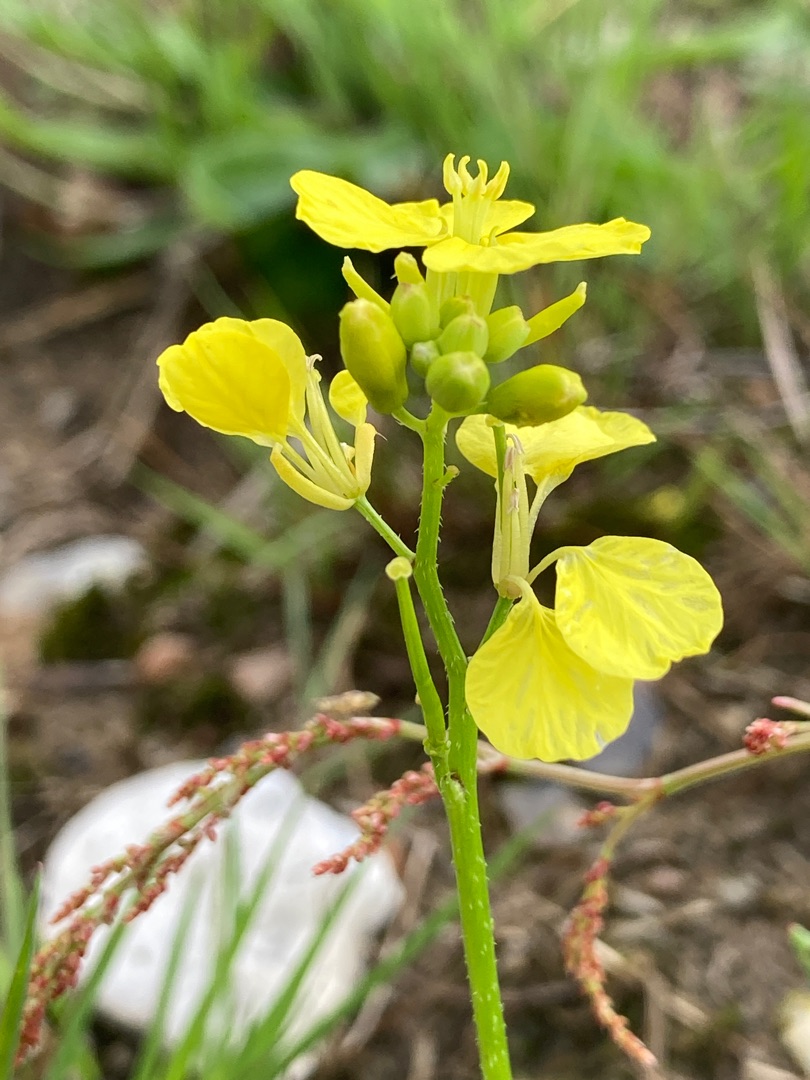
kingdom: Plantae
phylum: Tracheophyta
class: Magnoliopsida
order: Brassicales
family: Brassicaceae
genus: Sinapis
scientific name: Sinapis arvensis
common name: Ager-sennep
